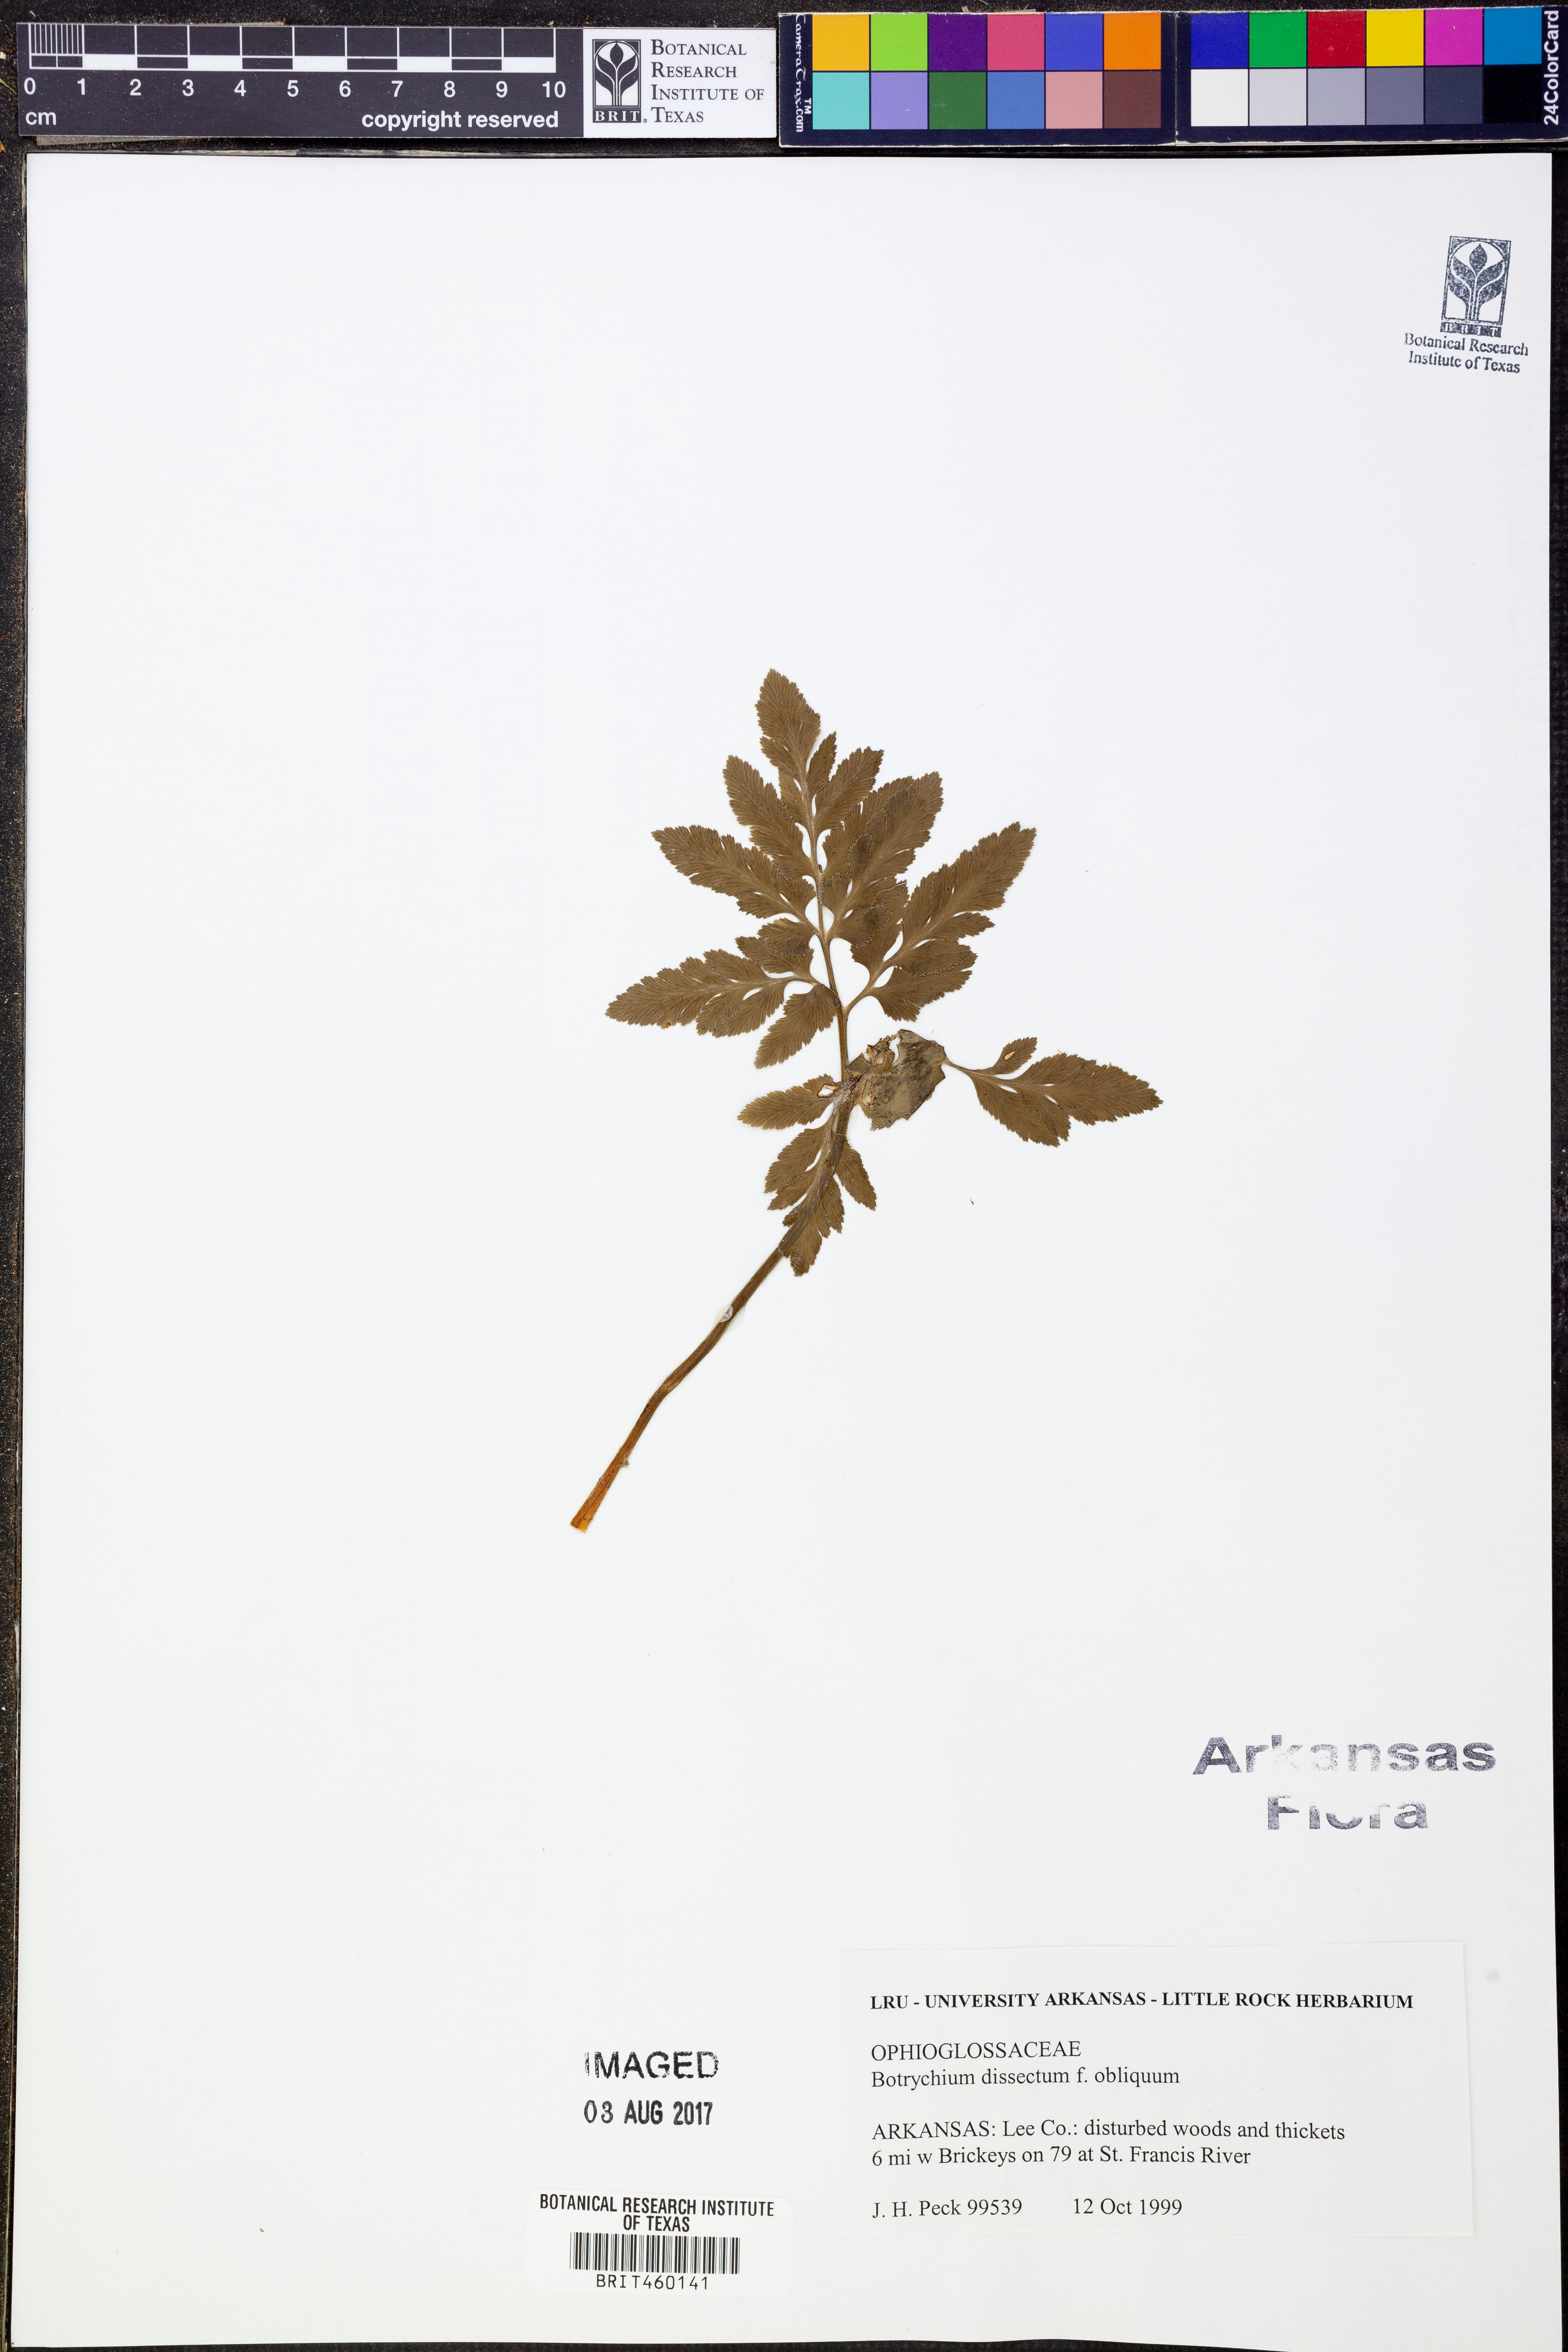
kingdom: Plantae
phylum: Tracheophyta
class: Polypodiopsida
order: Ophioglossales
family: Ophioglossaceae
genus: Sceptridium
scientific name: Sceptridium dissectum
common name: Cut-leaved grapefern
